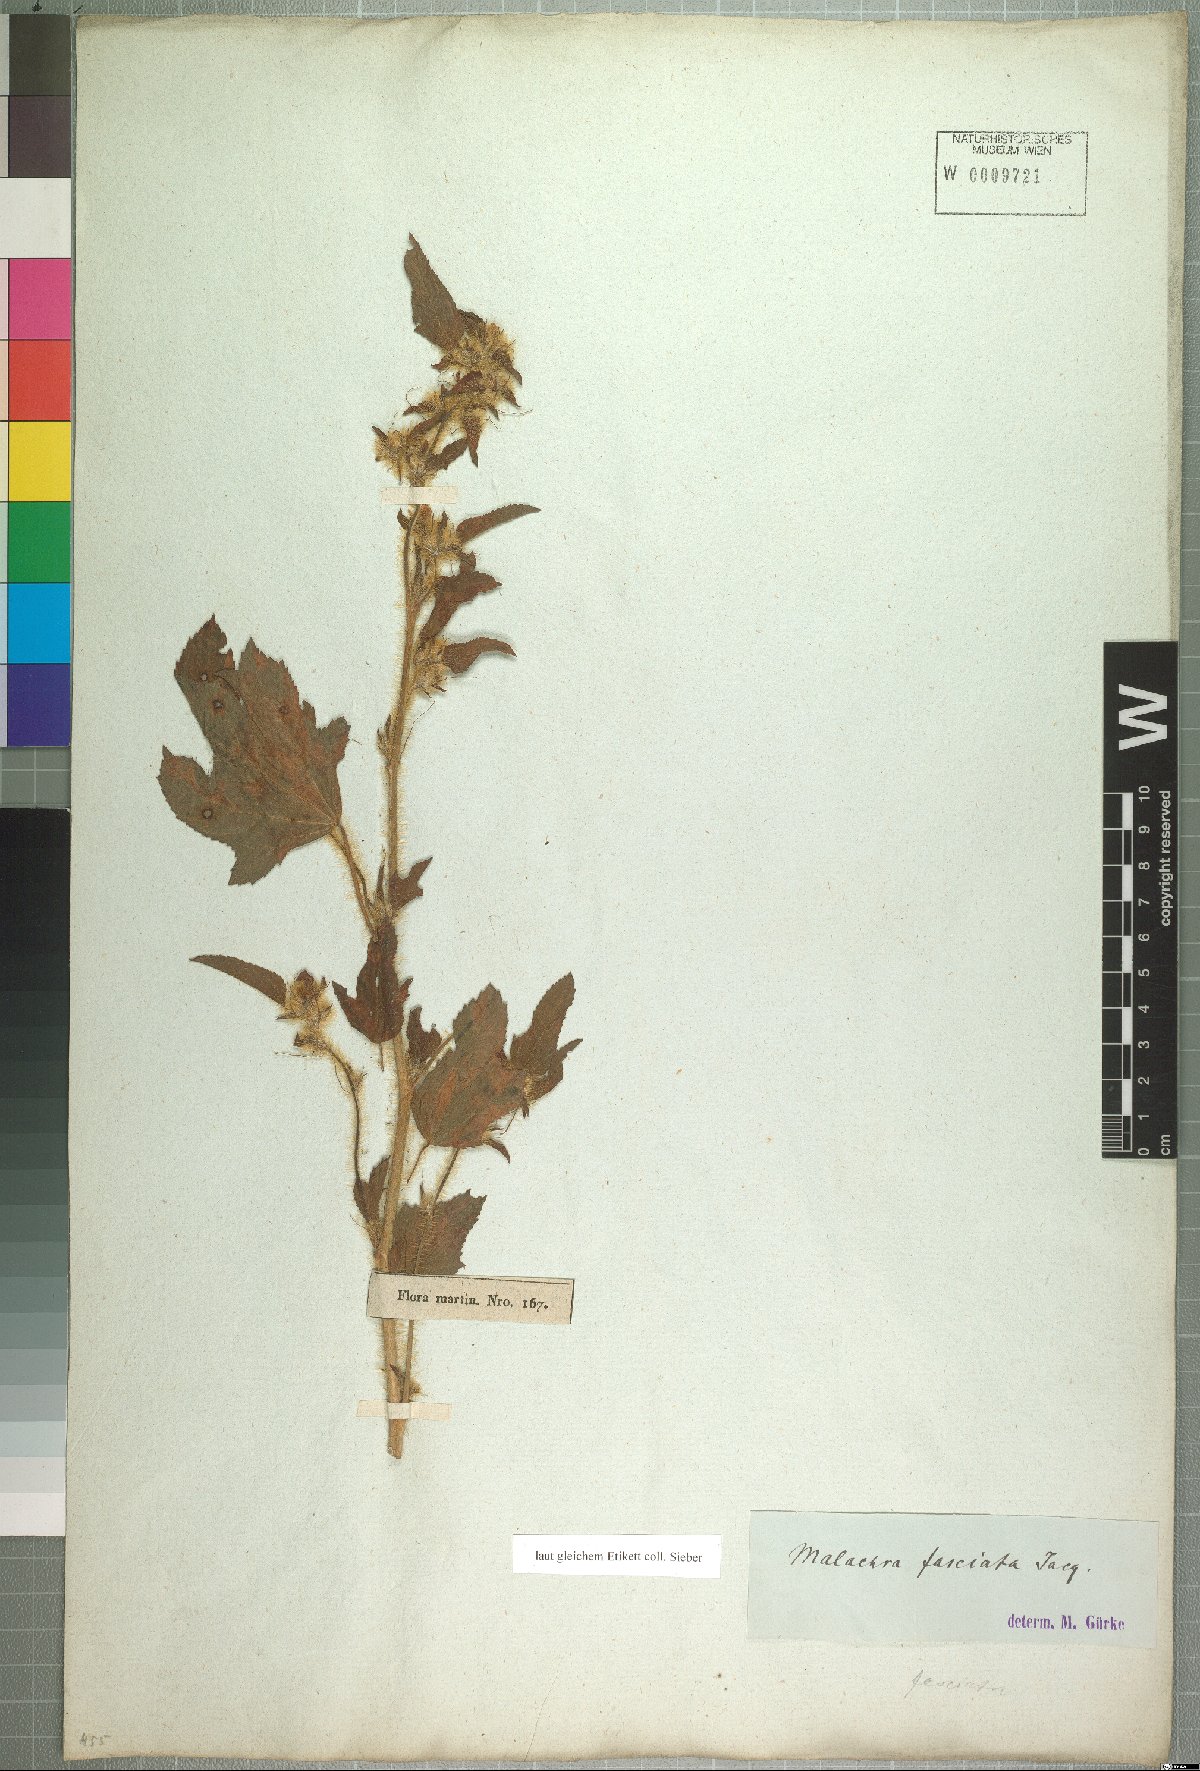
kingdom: Plantae
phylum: Tracheophyta
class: Magnoliopsida
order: Malvales
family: Malvaceae
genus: Malachra
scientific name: Malachra fasciata
